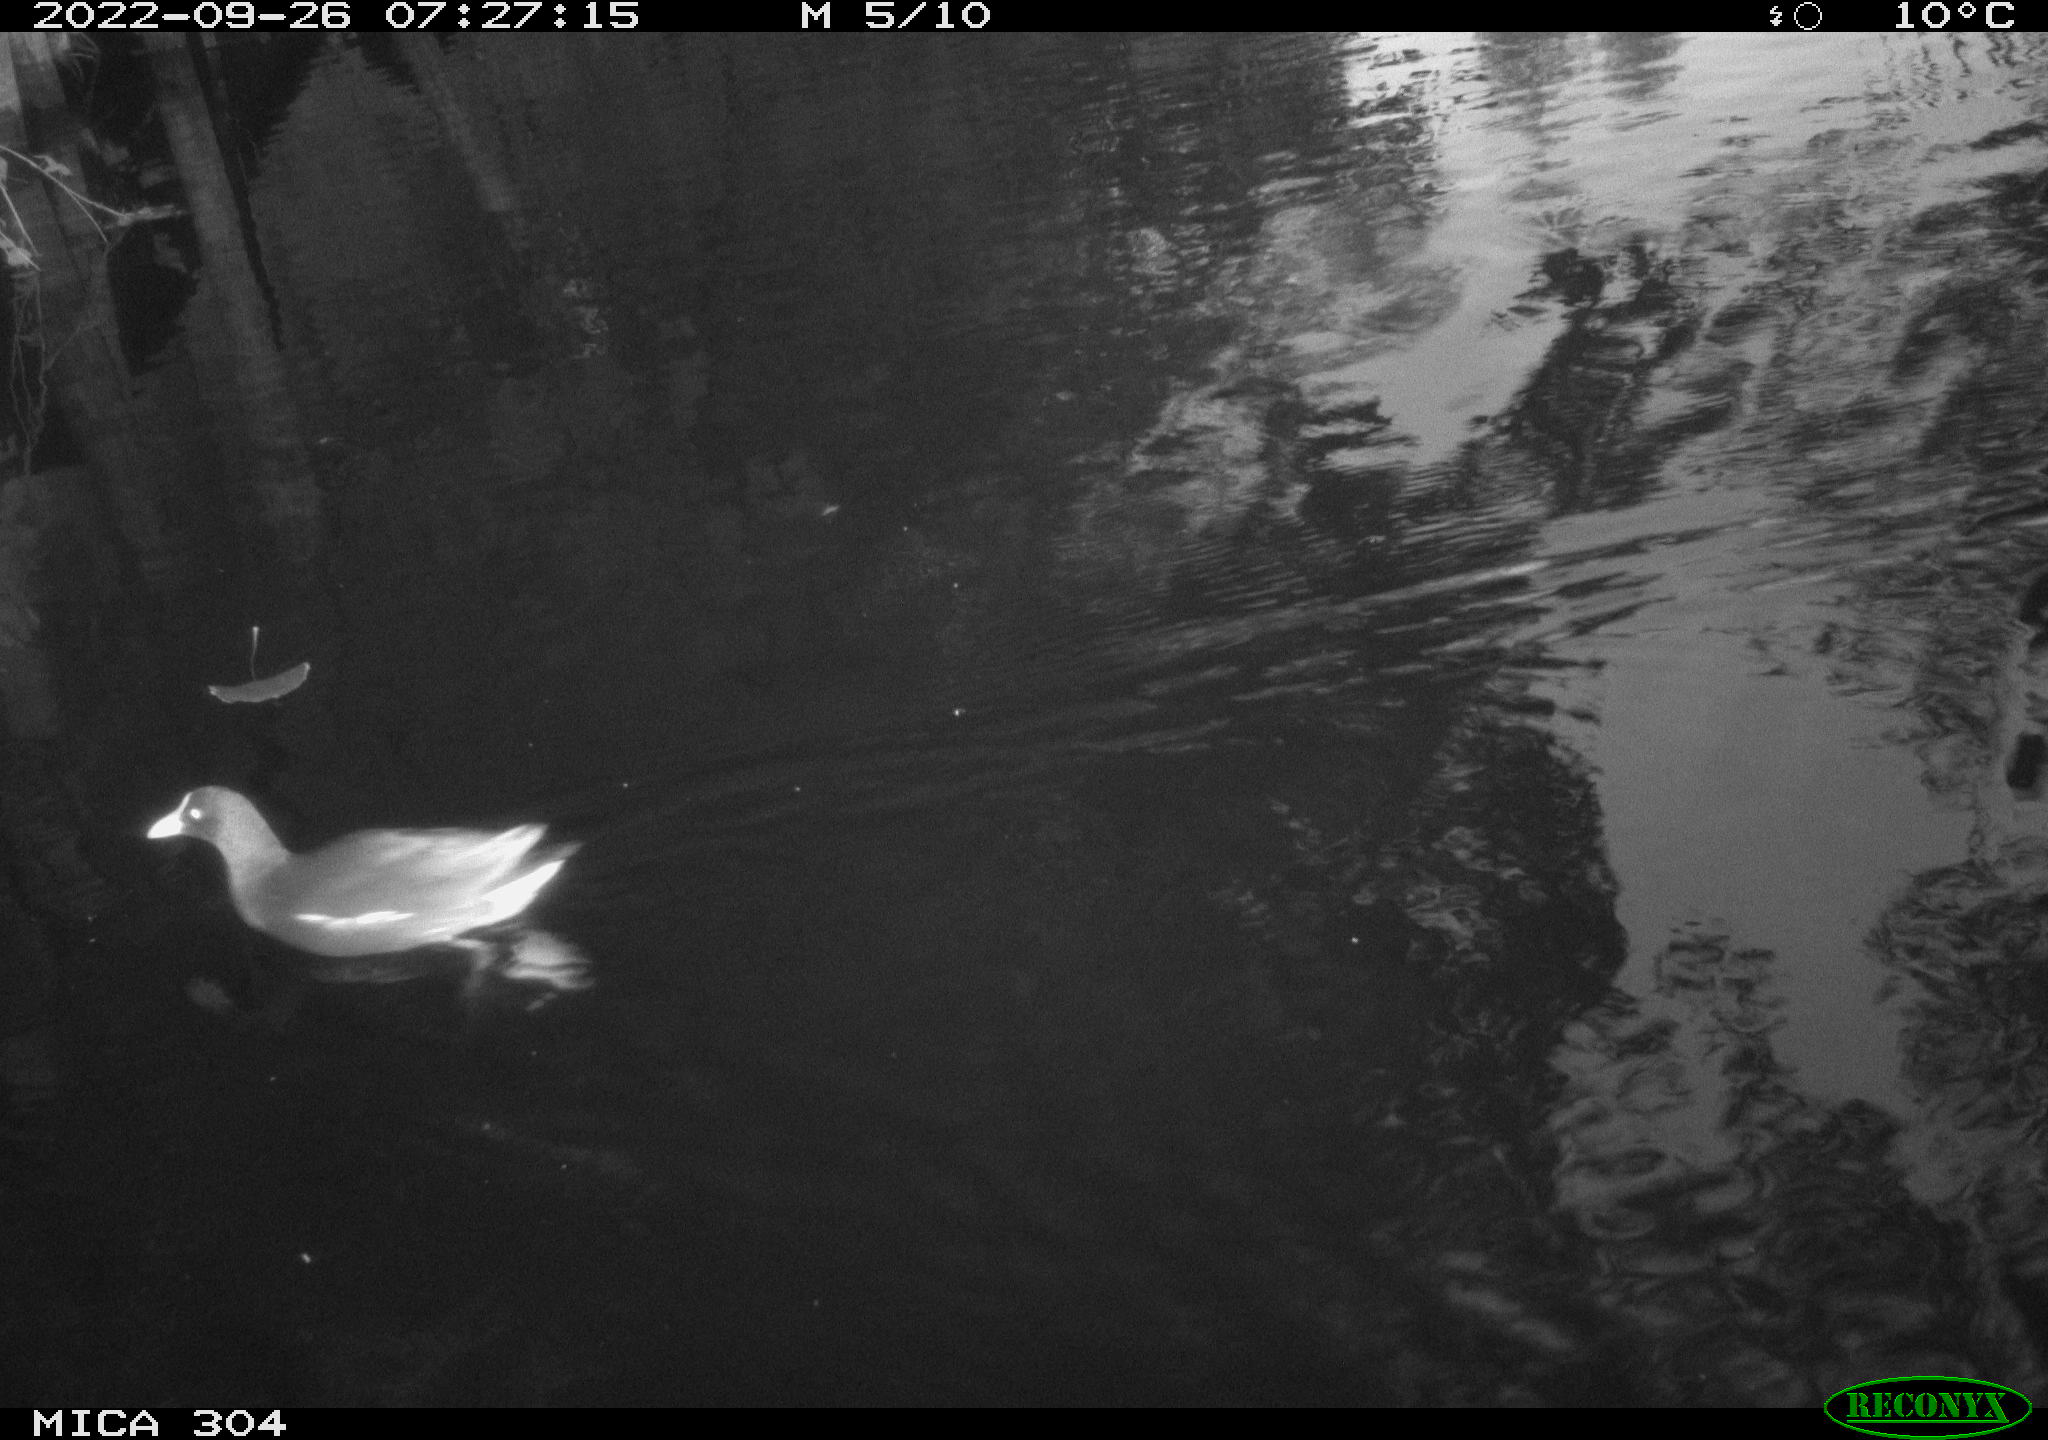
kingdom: Animalia
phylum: Chordata
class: Aves
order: Anseriformes
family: Anatidae
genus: Anas
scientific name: Anas
